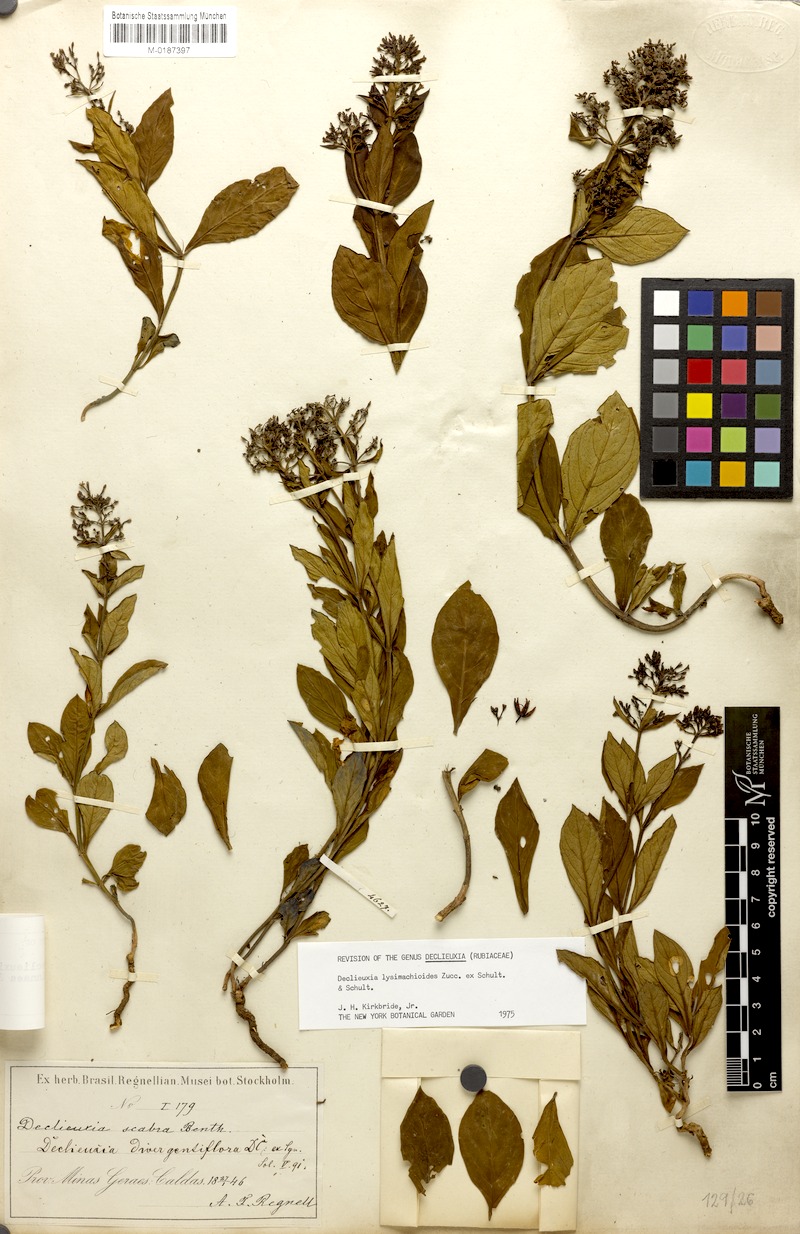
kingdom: Plantae
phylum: Tracheophyta
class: Magnoliopsida
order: Gentianales
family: Rubiaceae
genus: Declieuxia
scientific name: Declieuxia lysimachioides
